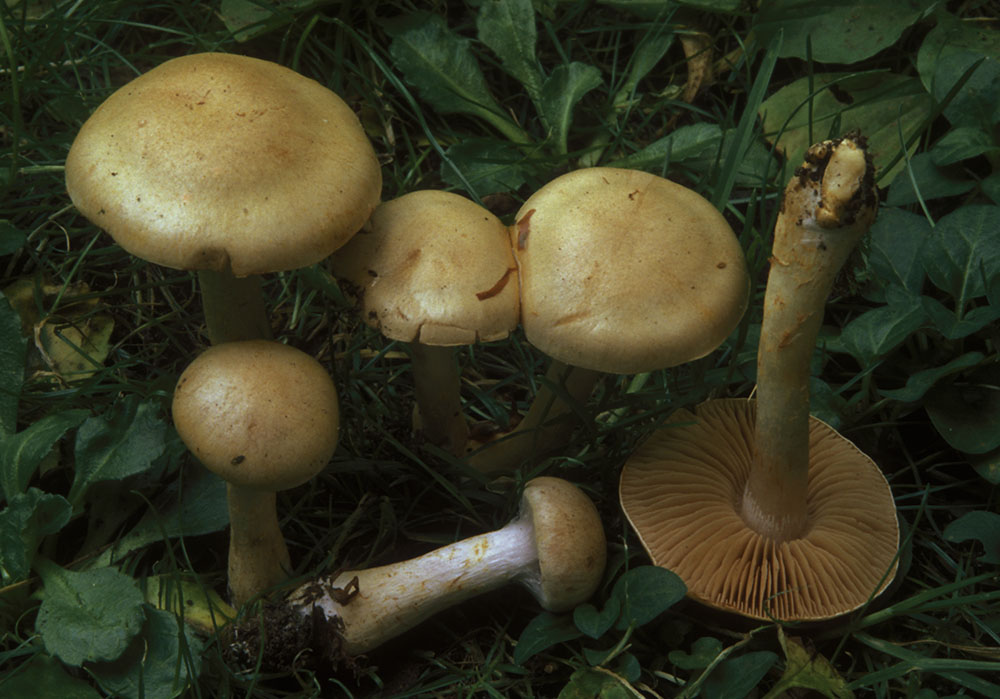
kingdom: Fungi
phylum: Basidiomycota
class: Agaricomycetes
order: Agaricales
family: Cortinariaceae
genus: Cortinarius
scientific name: Cortinarius anomalus
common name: Variable webcap
